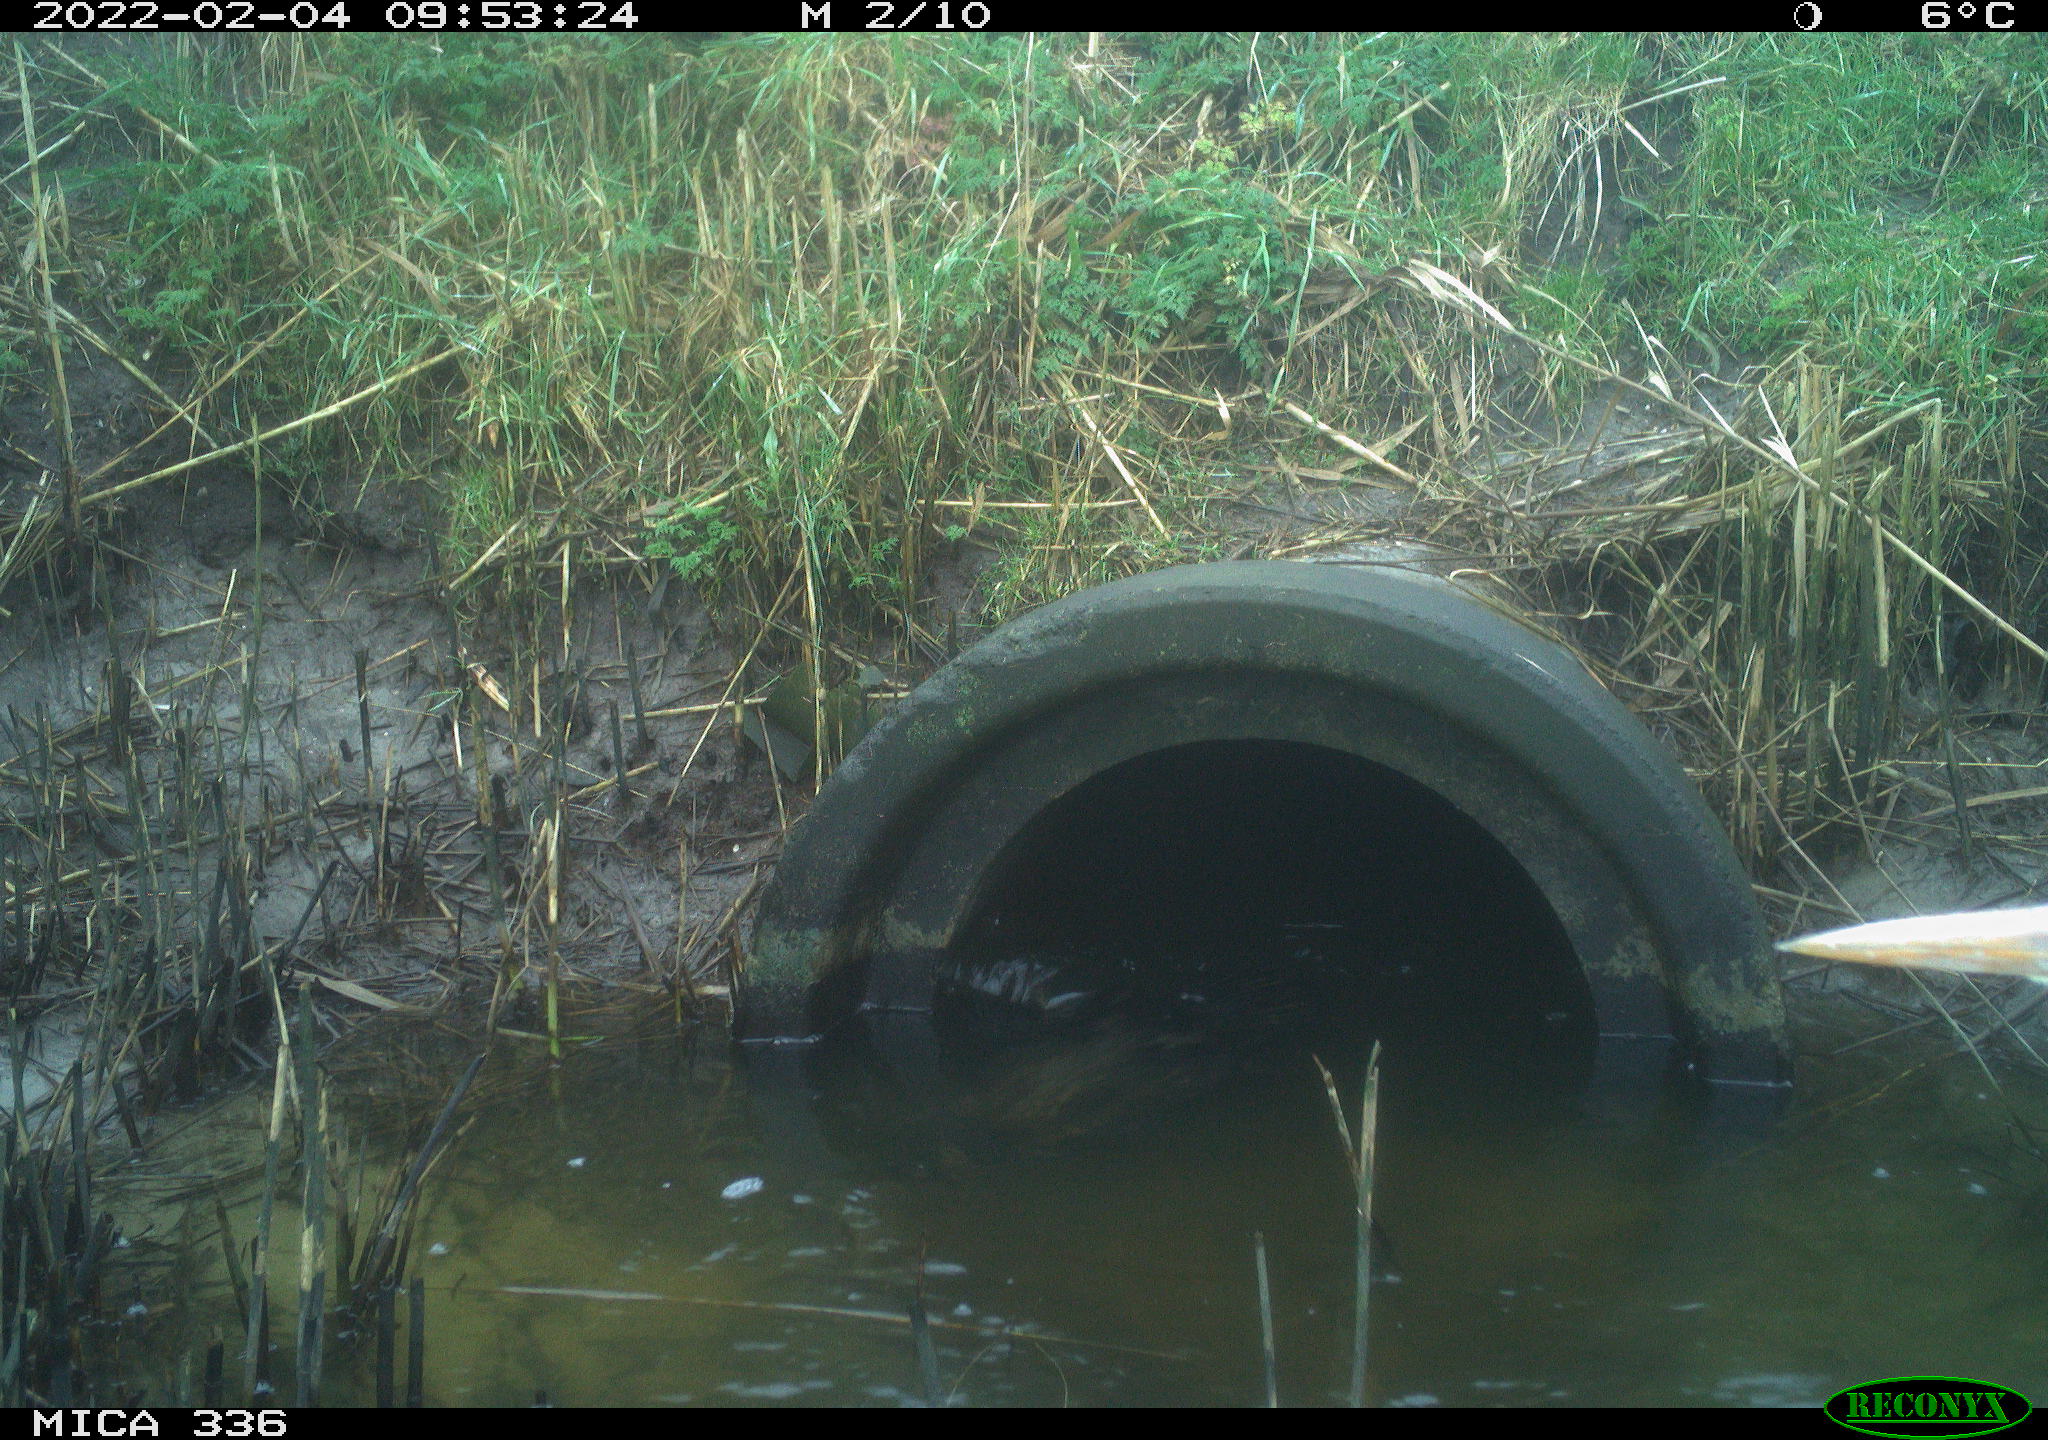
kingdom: Animalia
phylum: Chordata
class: Aves
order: Suliformes
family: Phalacrocoracidae
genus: Phalacrocorax
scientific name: Phalacrocorax carbo
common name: Great cormorant
